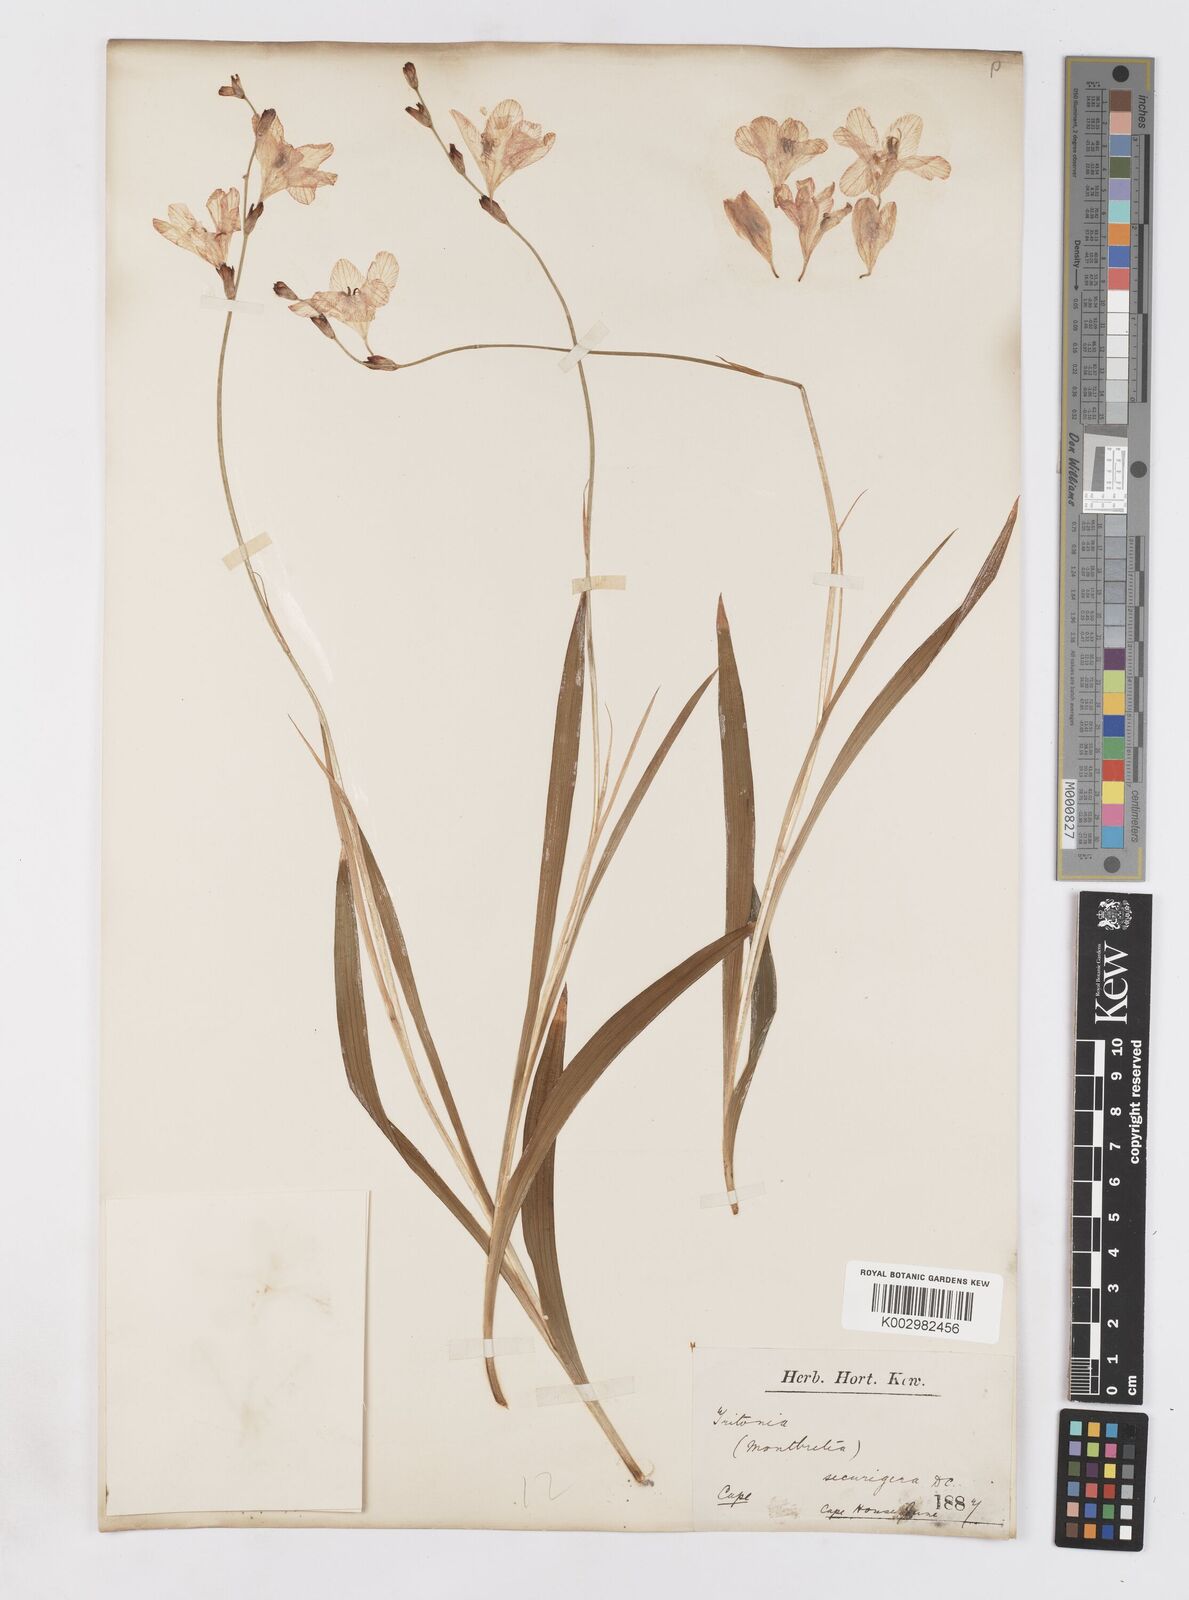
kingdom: Plantae
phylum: Tracheophyta
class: Liliopsida
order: Asparagales
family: Iridaceae
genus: Tritonia
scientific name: Tritonia securigera
